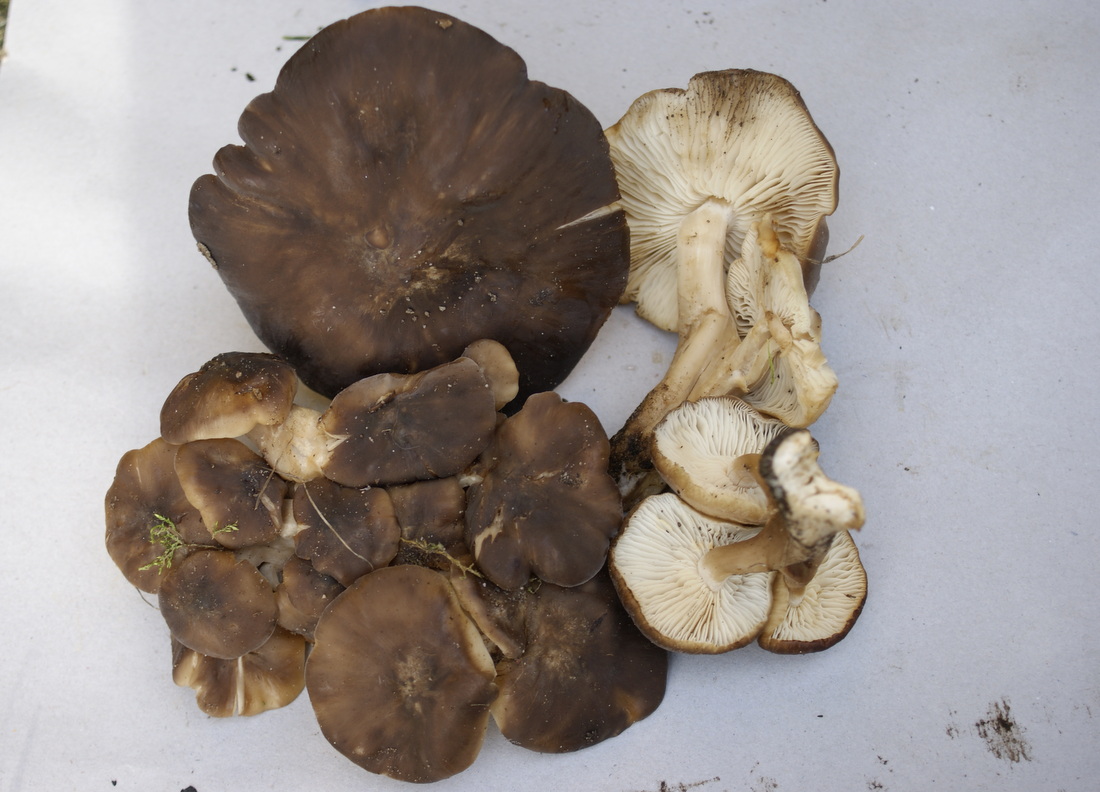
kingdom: Fungi
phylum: Basidiomycota
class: Agaricomycetes
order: Agaricales
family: Lyophyllaceae
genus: Lyophyllum
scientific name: Lyophyllum decastes
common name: røggrå gråblad
